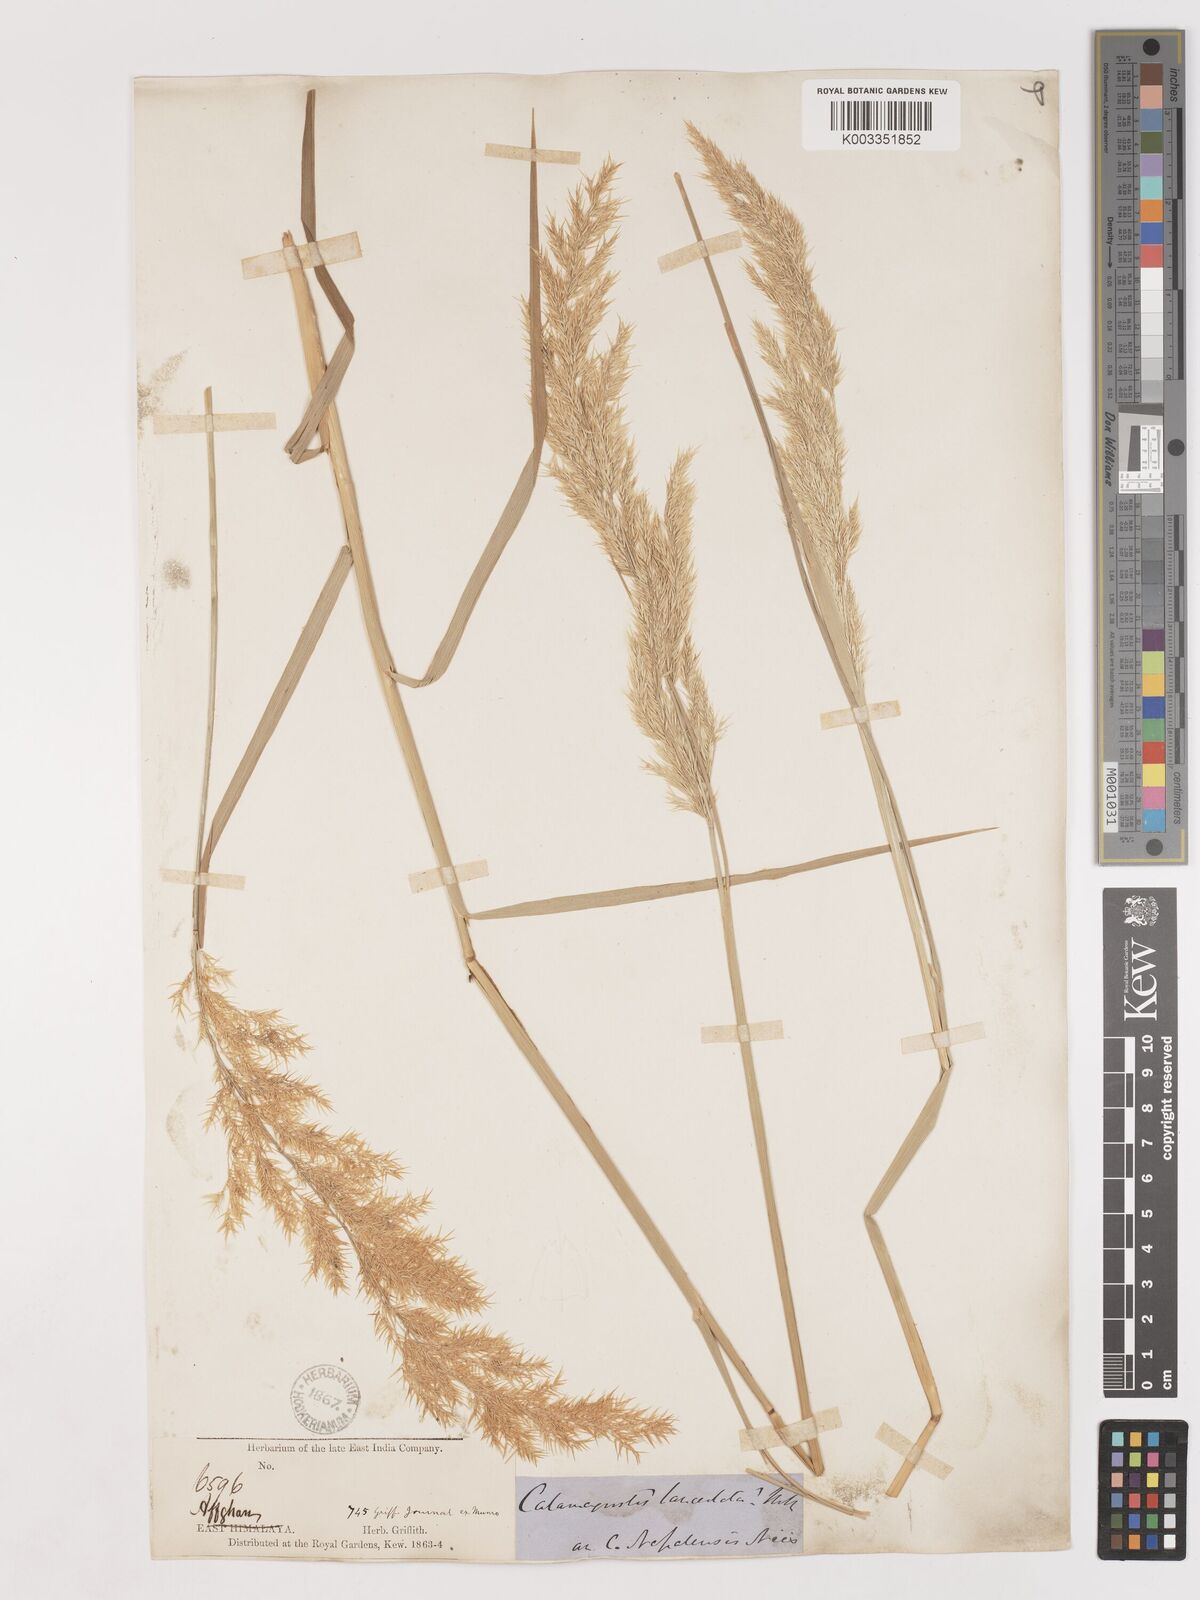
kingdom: Plantae
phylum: Tracheophyta
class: Liliopsida
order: Poales
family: Poaceae
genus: Calamagrostis
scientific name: Calamagrostis purpurea
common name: Scandinavian small-reed
